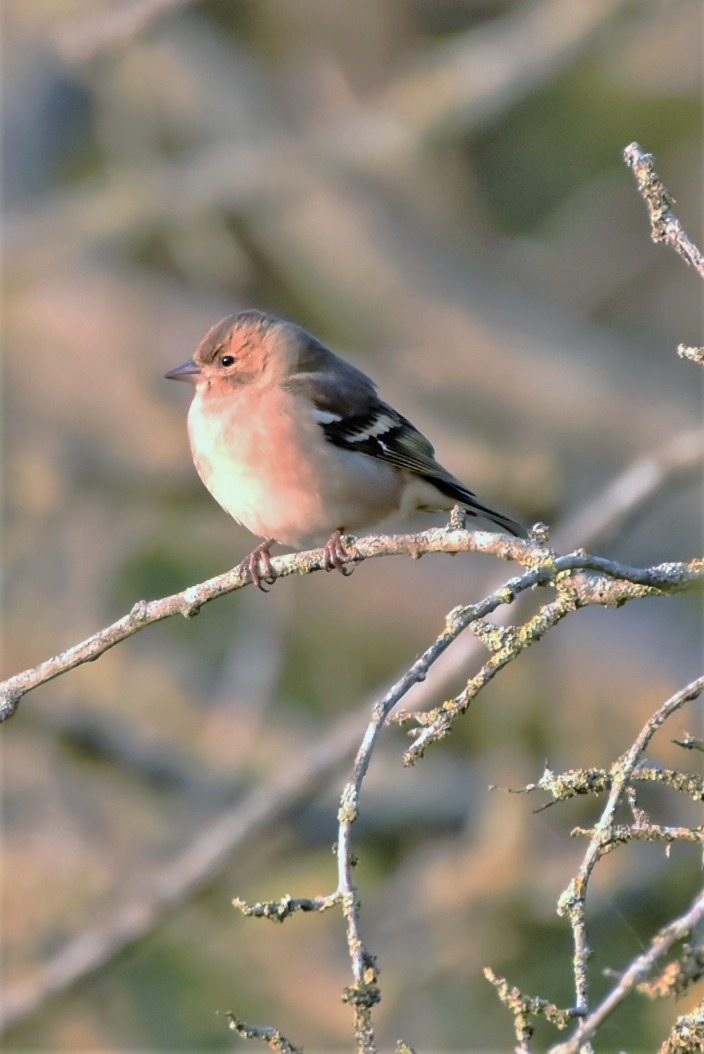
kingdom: Animalia
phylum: Chordata
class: Aves
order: Passeriformes
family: Fringillidae
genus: Fringilla
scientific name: Fringilla coelebs
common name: Bogfinke
